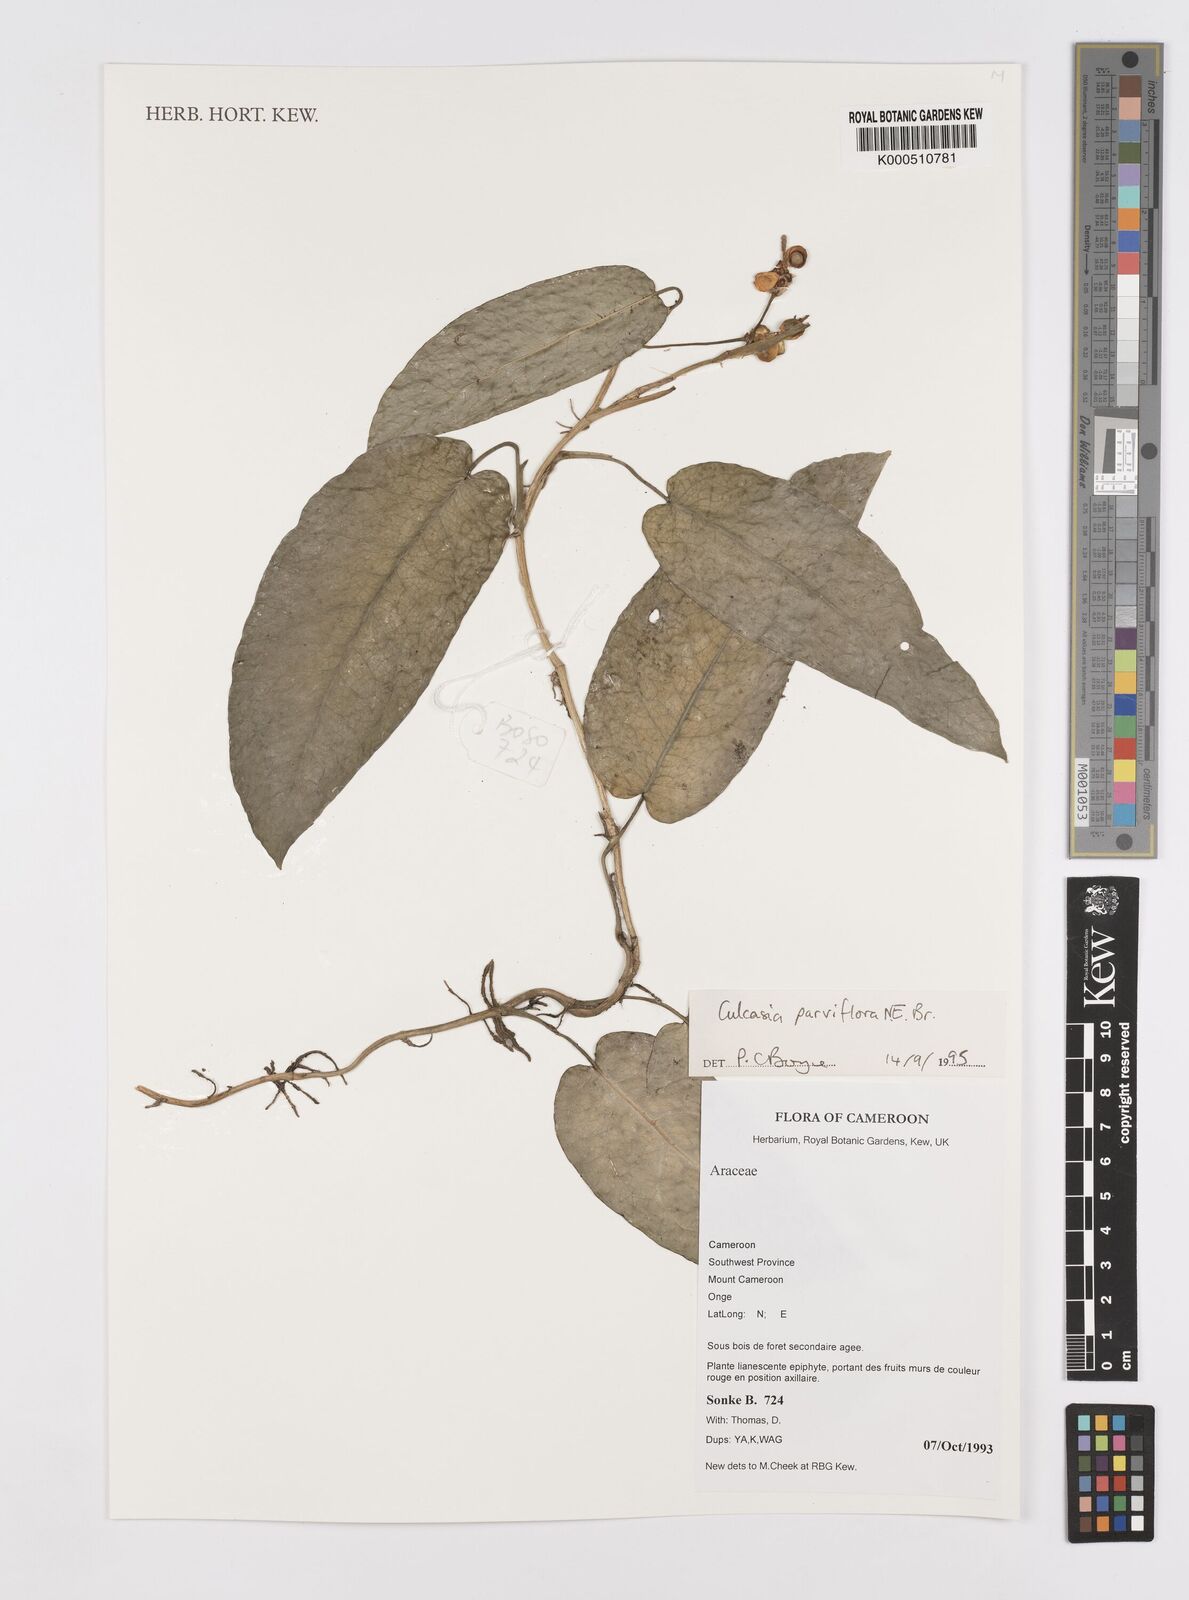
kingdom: Plantae
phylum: Tracheophyta
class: Liliopsida
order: Alismatales
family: Araceae
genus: Culcasia
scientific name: Culcasia panduriformis
